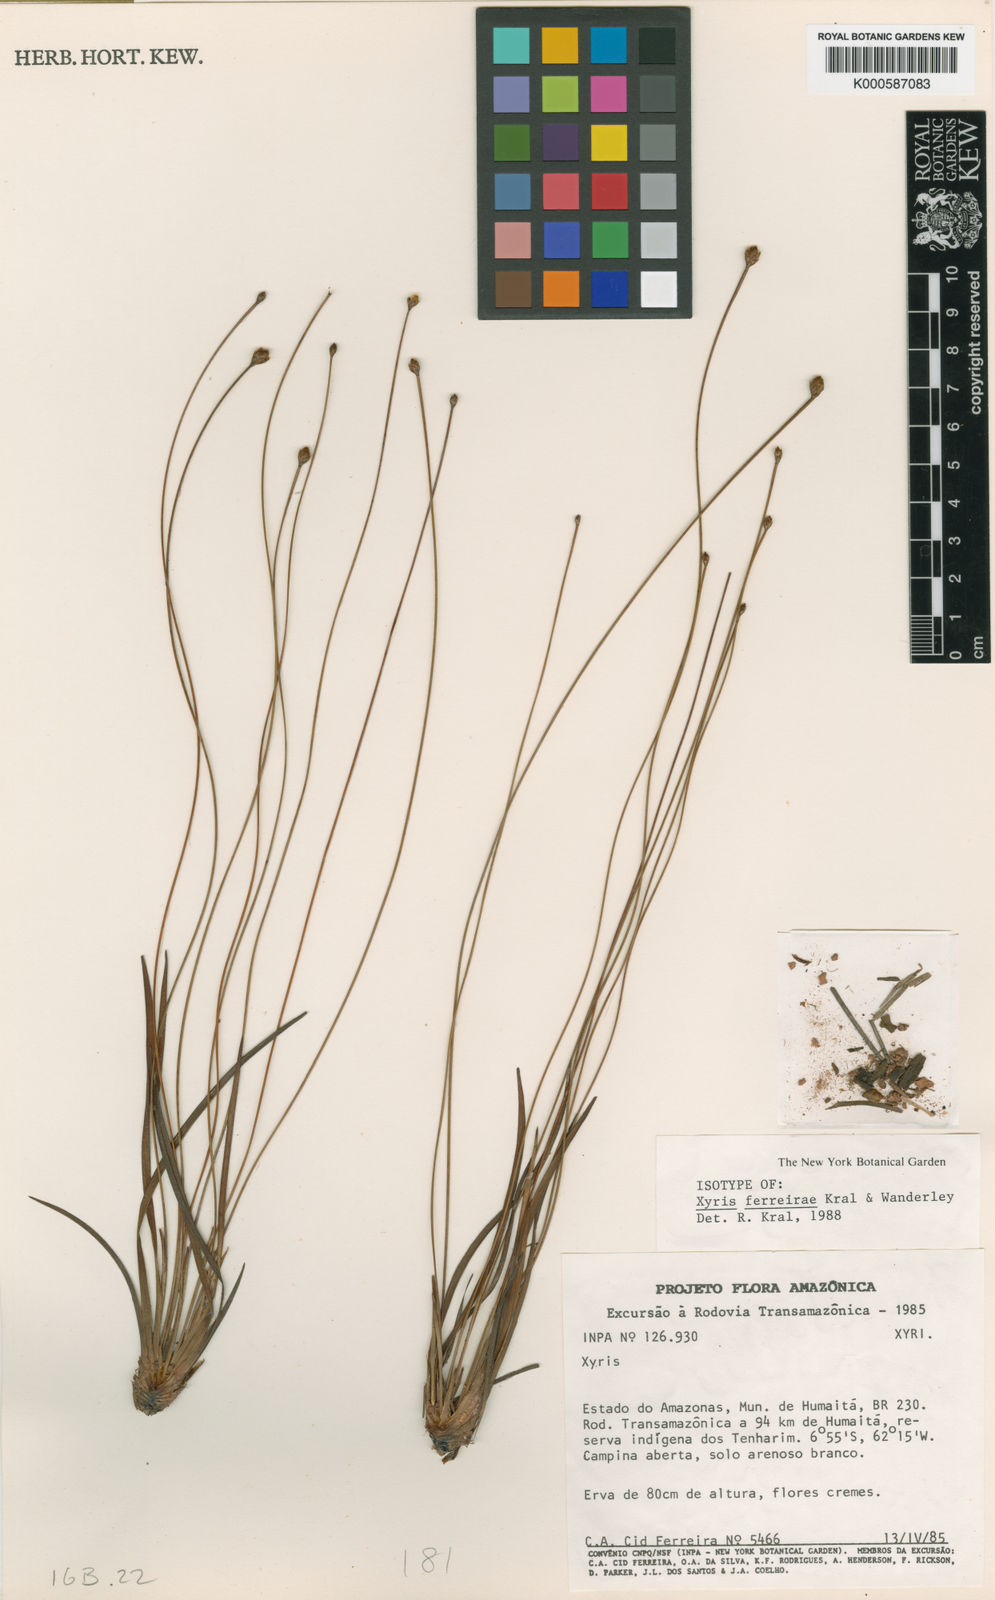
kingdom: Plantae
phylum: Tracheophyta
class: Liliopsida
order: Poales
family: Xyridaceae
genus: Xyris
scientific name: Xyris ferreirae
